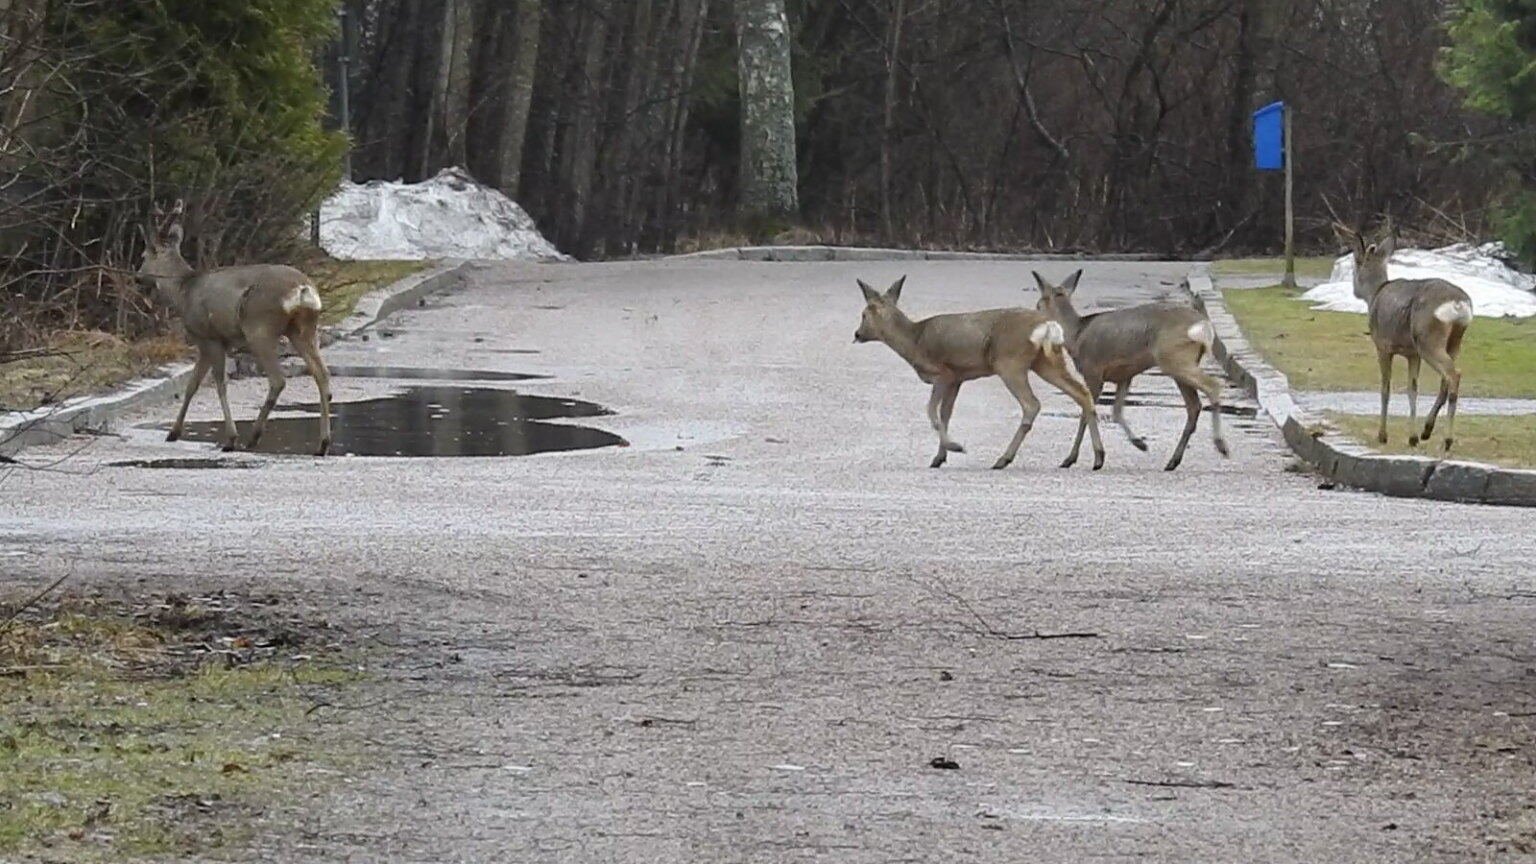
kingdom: Animalia
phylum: Chordata
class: Mammalia
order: Artiodactyla
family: Cervidae
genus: Capreolus
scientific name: Capreolus capreolus
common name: Western roe deer
